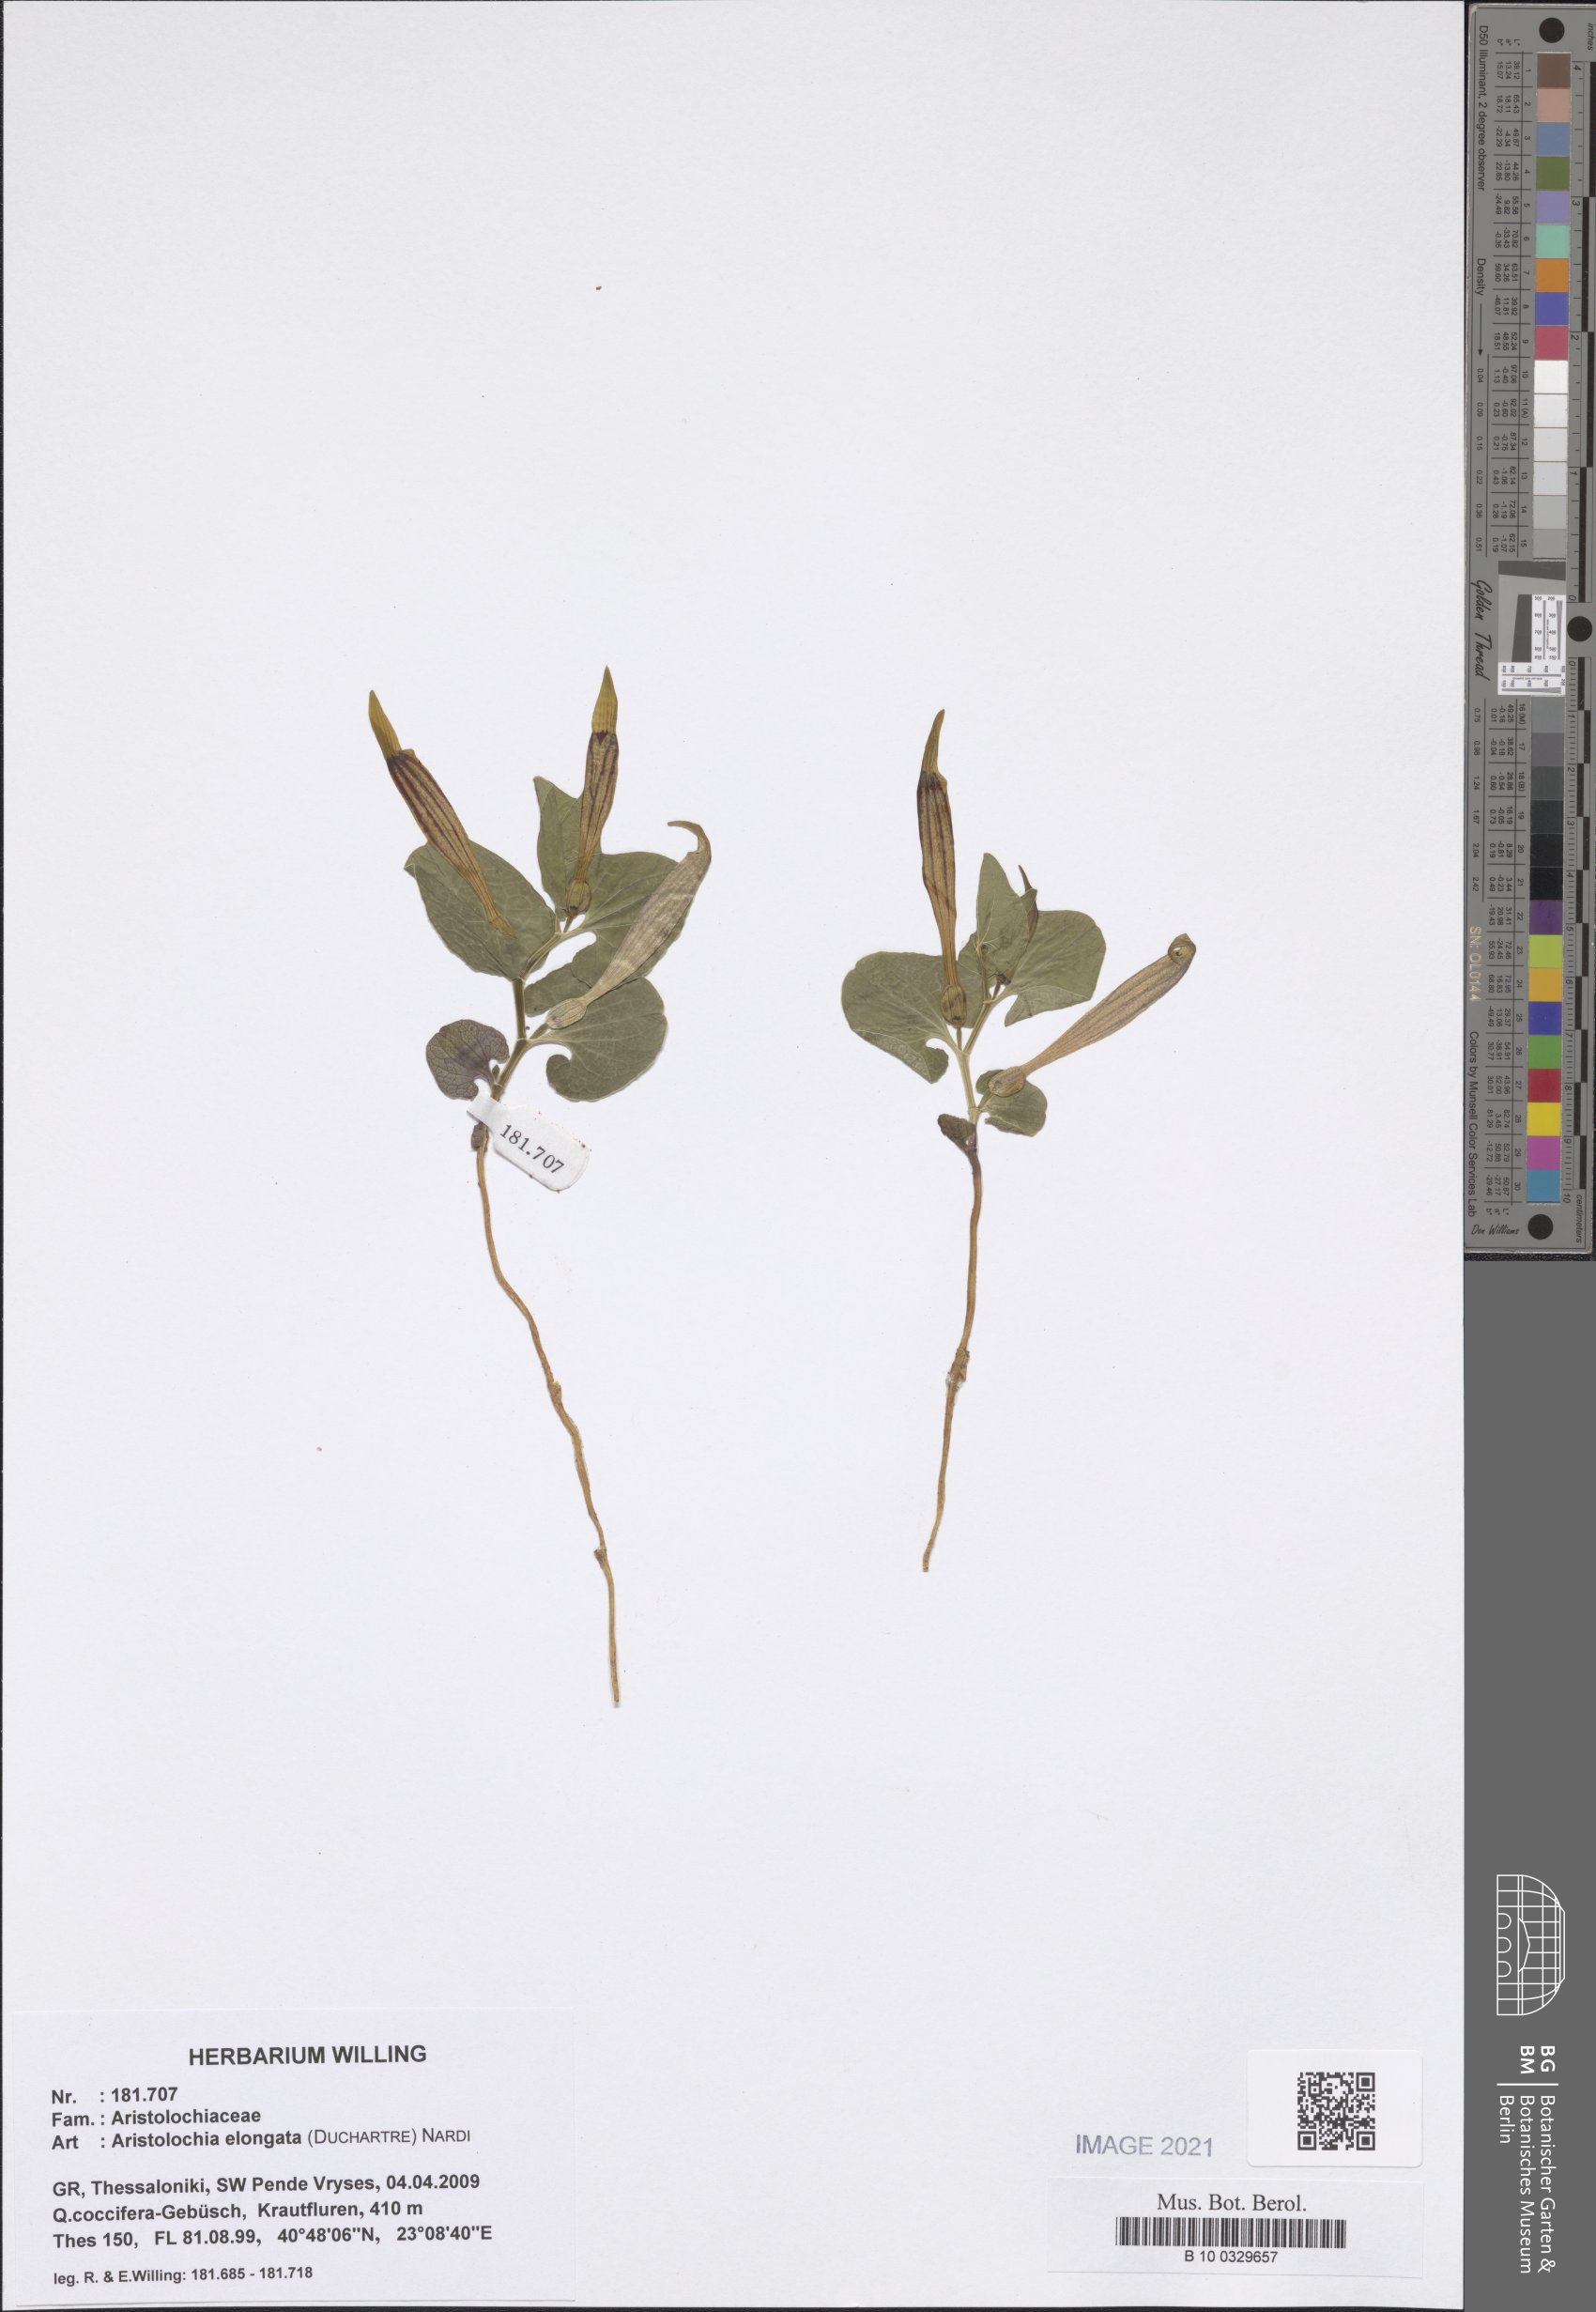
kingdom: Plantae
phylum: Tracheophyta
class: Magnoliopsida
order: Piperales
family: Aristolochiaceae
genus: Aristolochia
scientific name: Aristolochia nardiana
